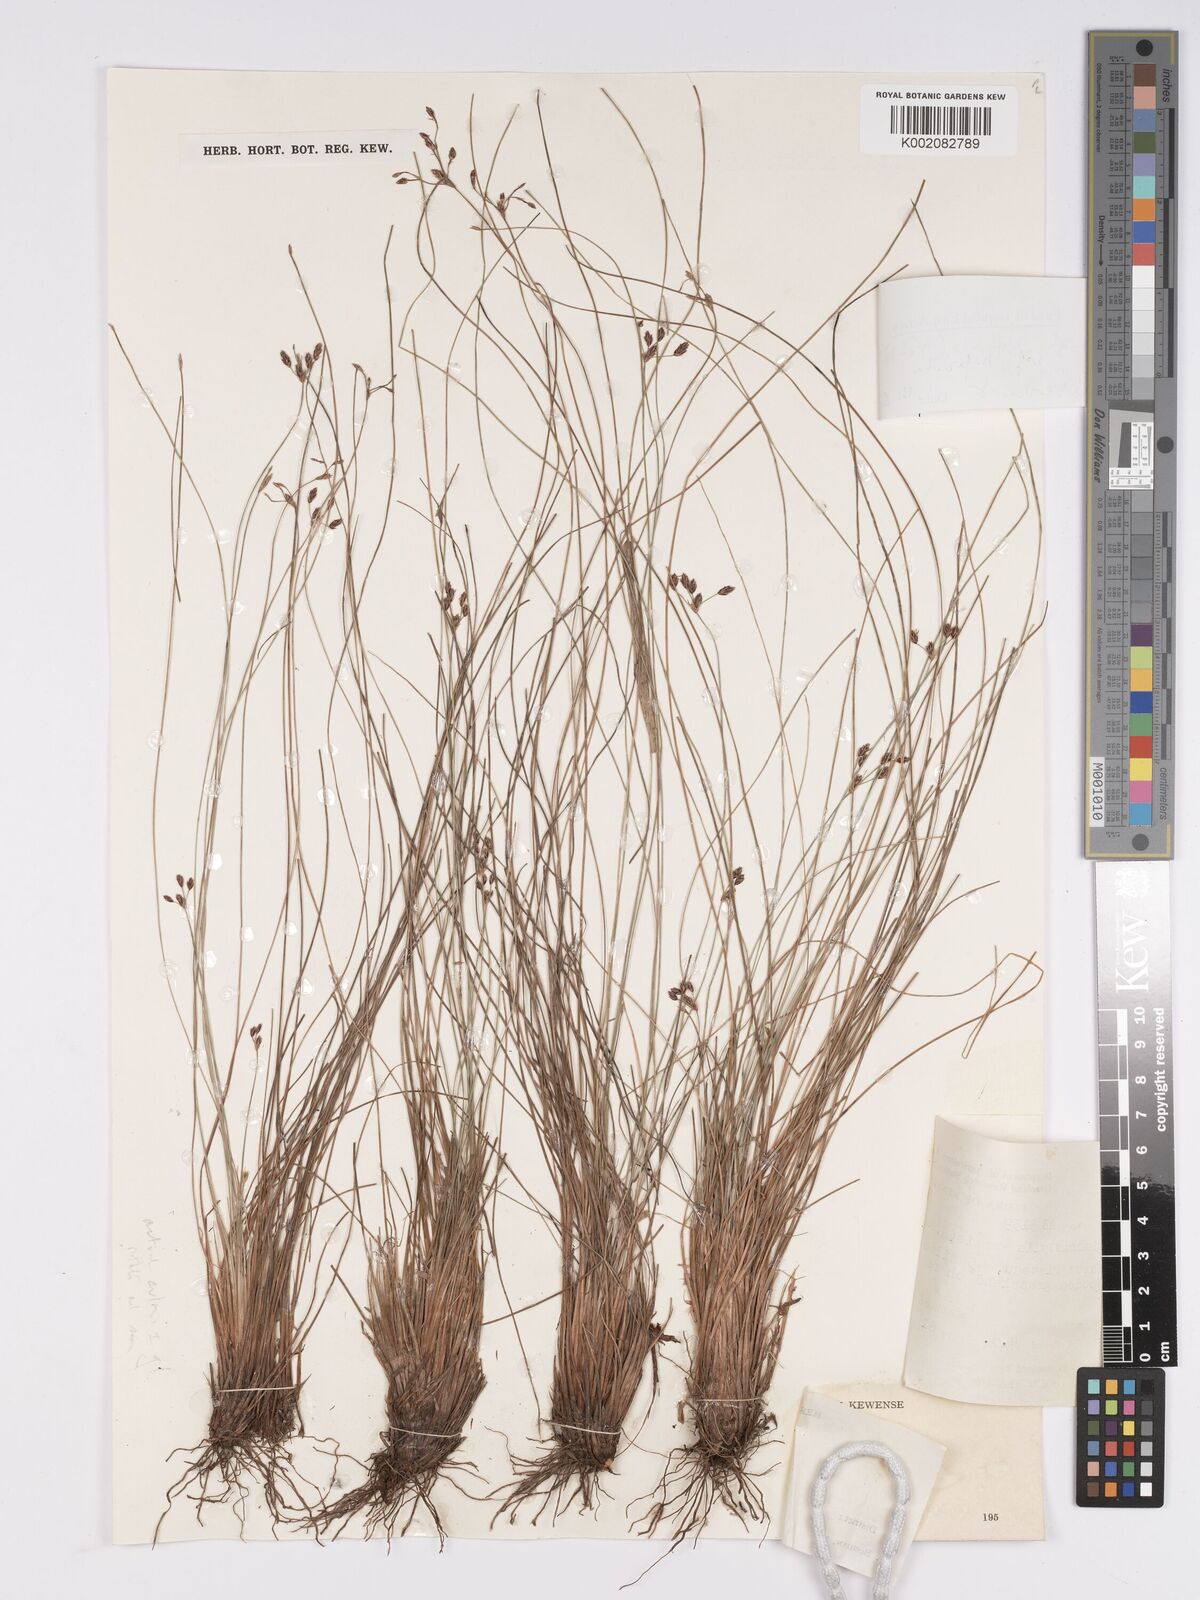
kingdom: Plantae
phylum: Tracheophyta
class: Liliopsida
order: Poales
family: Cyperaceae
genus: Bulbostylis
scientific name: Bulbostylis hispidula
